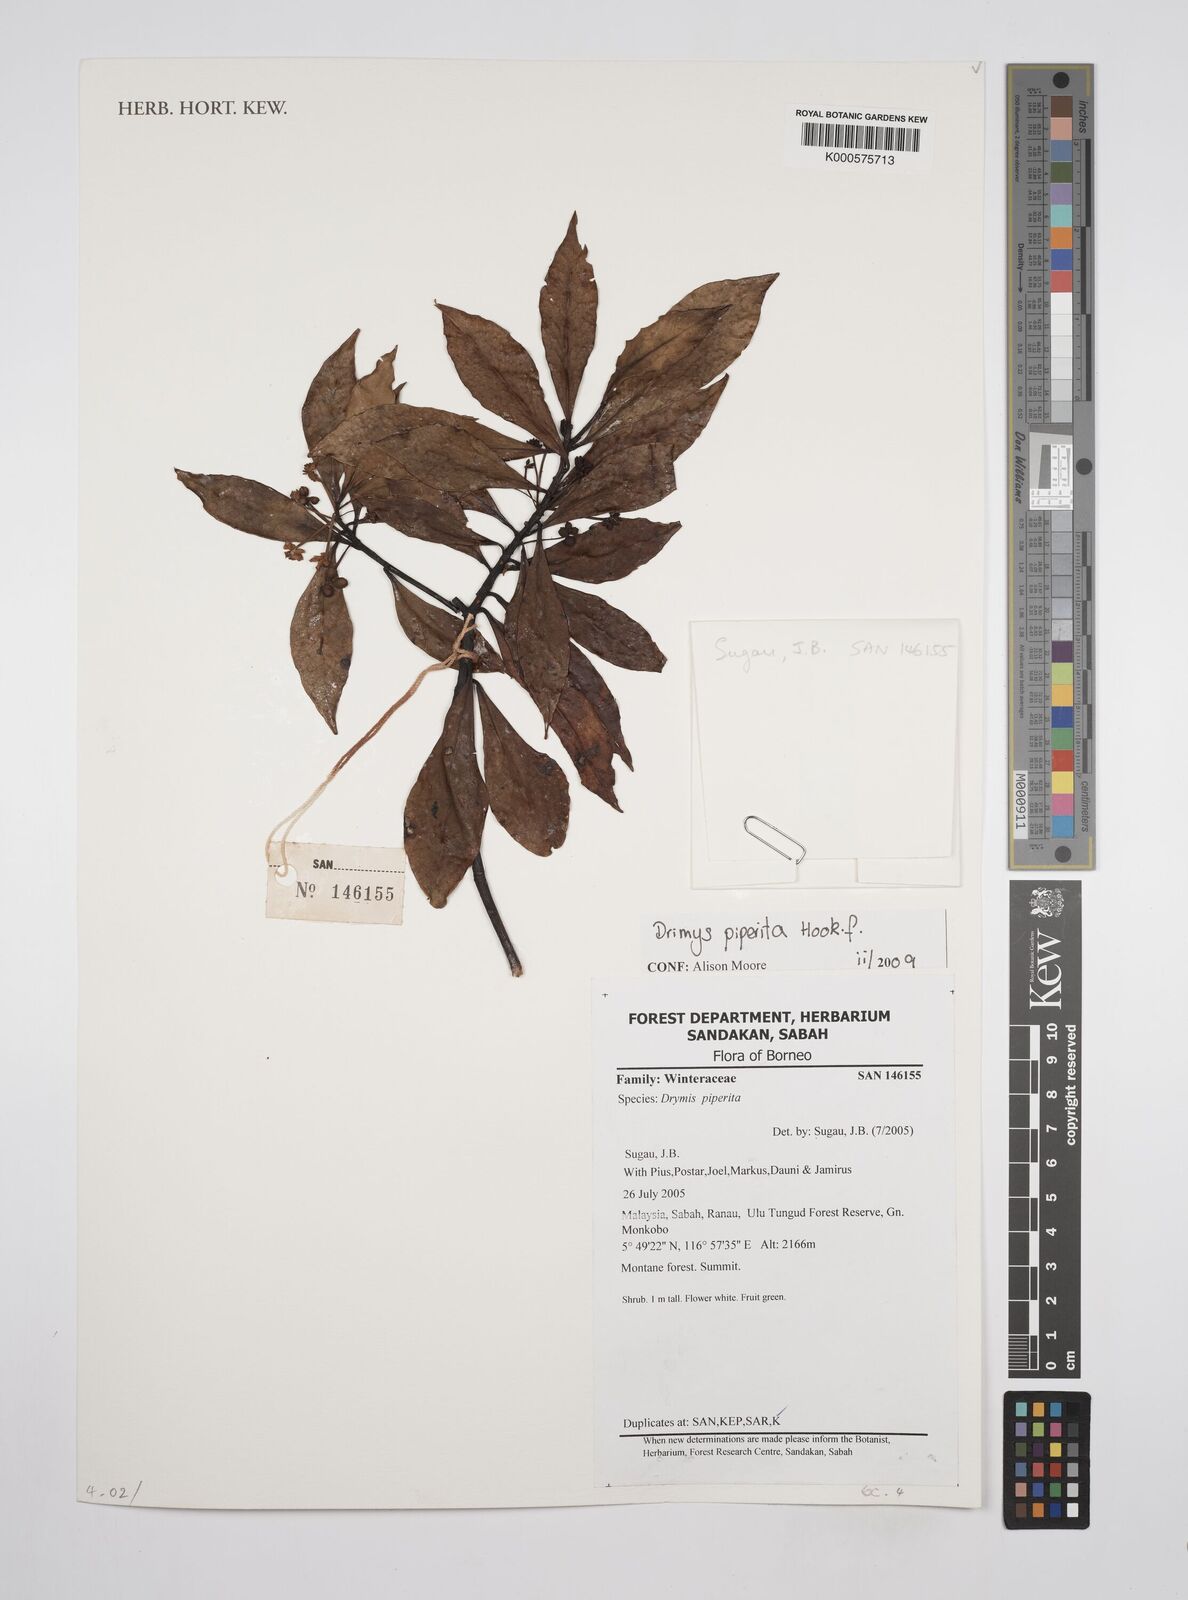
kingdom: Plantae
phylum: Tracheophyta
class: Magnoliopsida
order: Canellales
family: Winteraceae
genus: Drimys
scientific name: Drimys piperita
